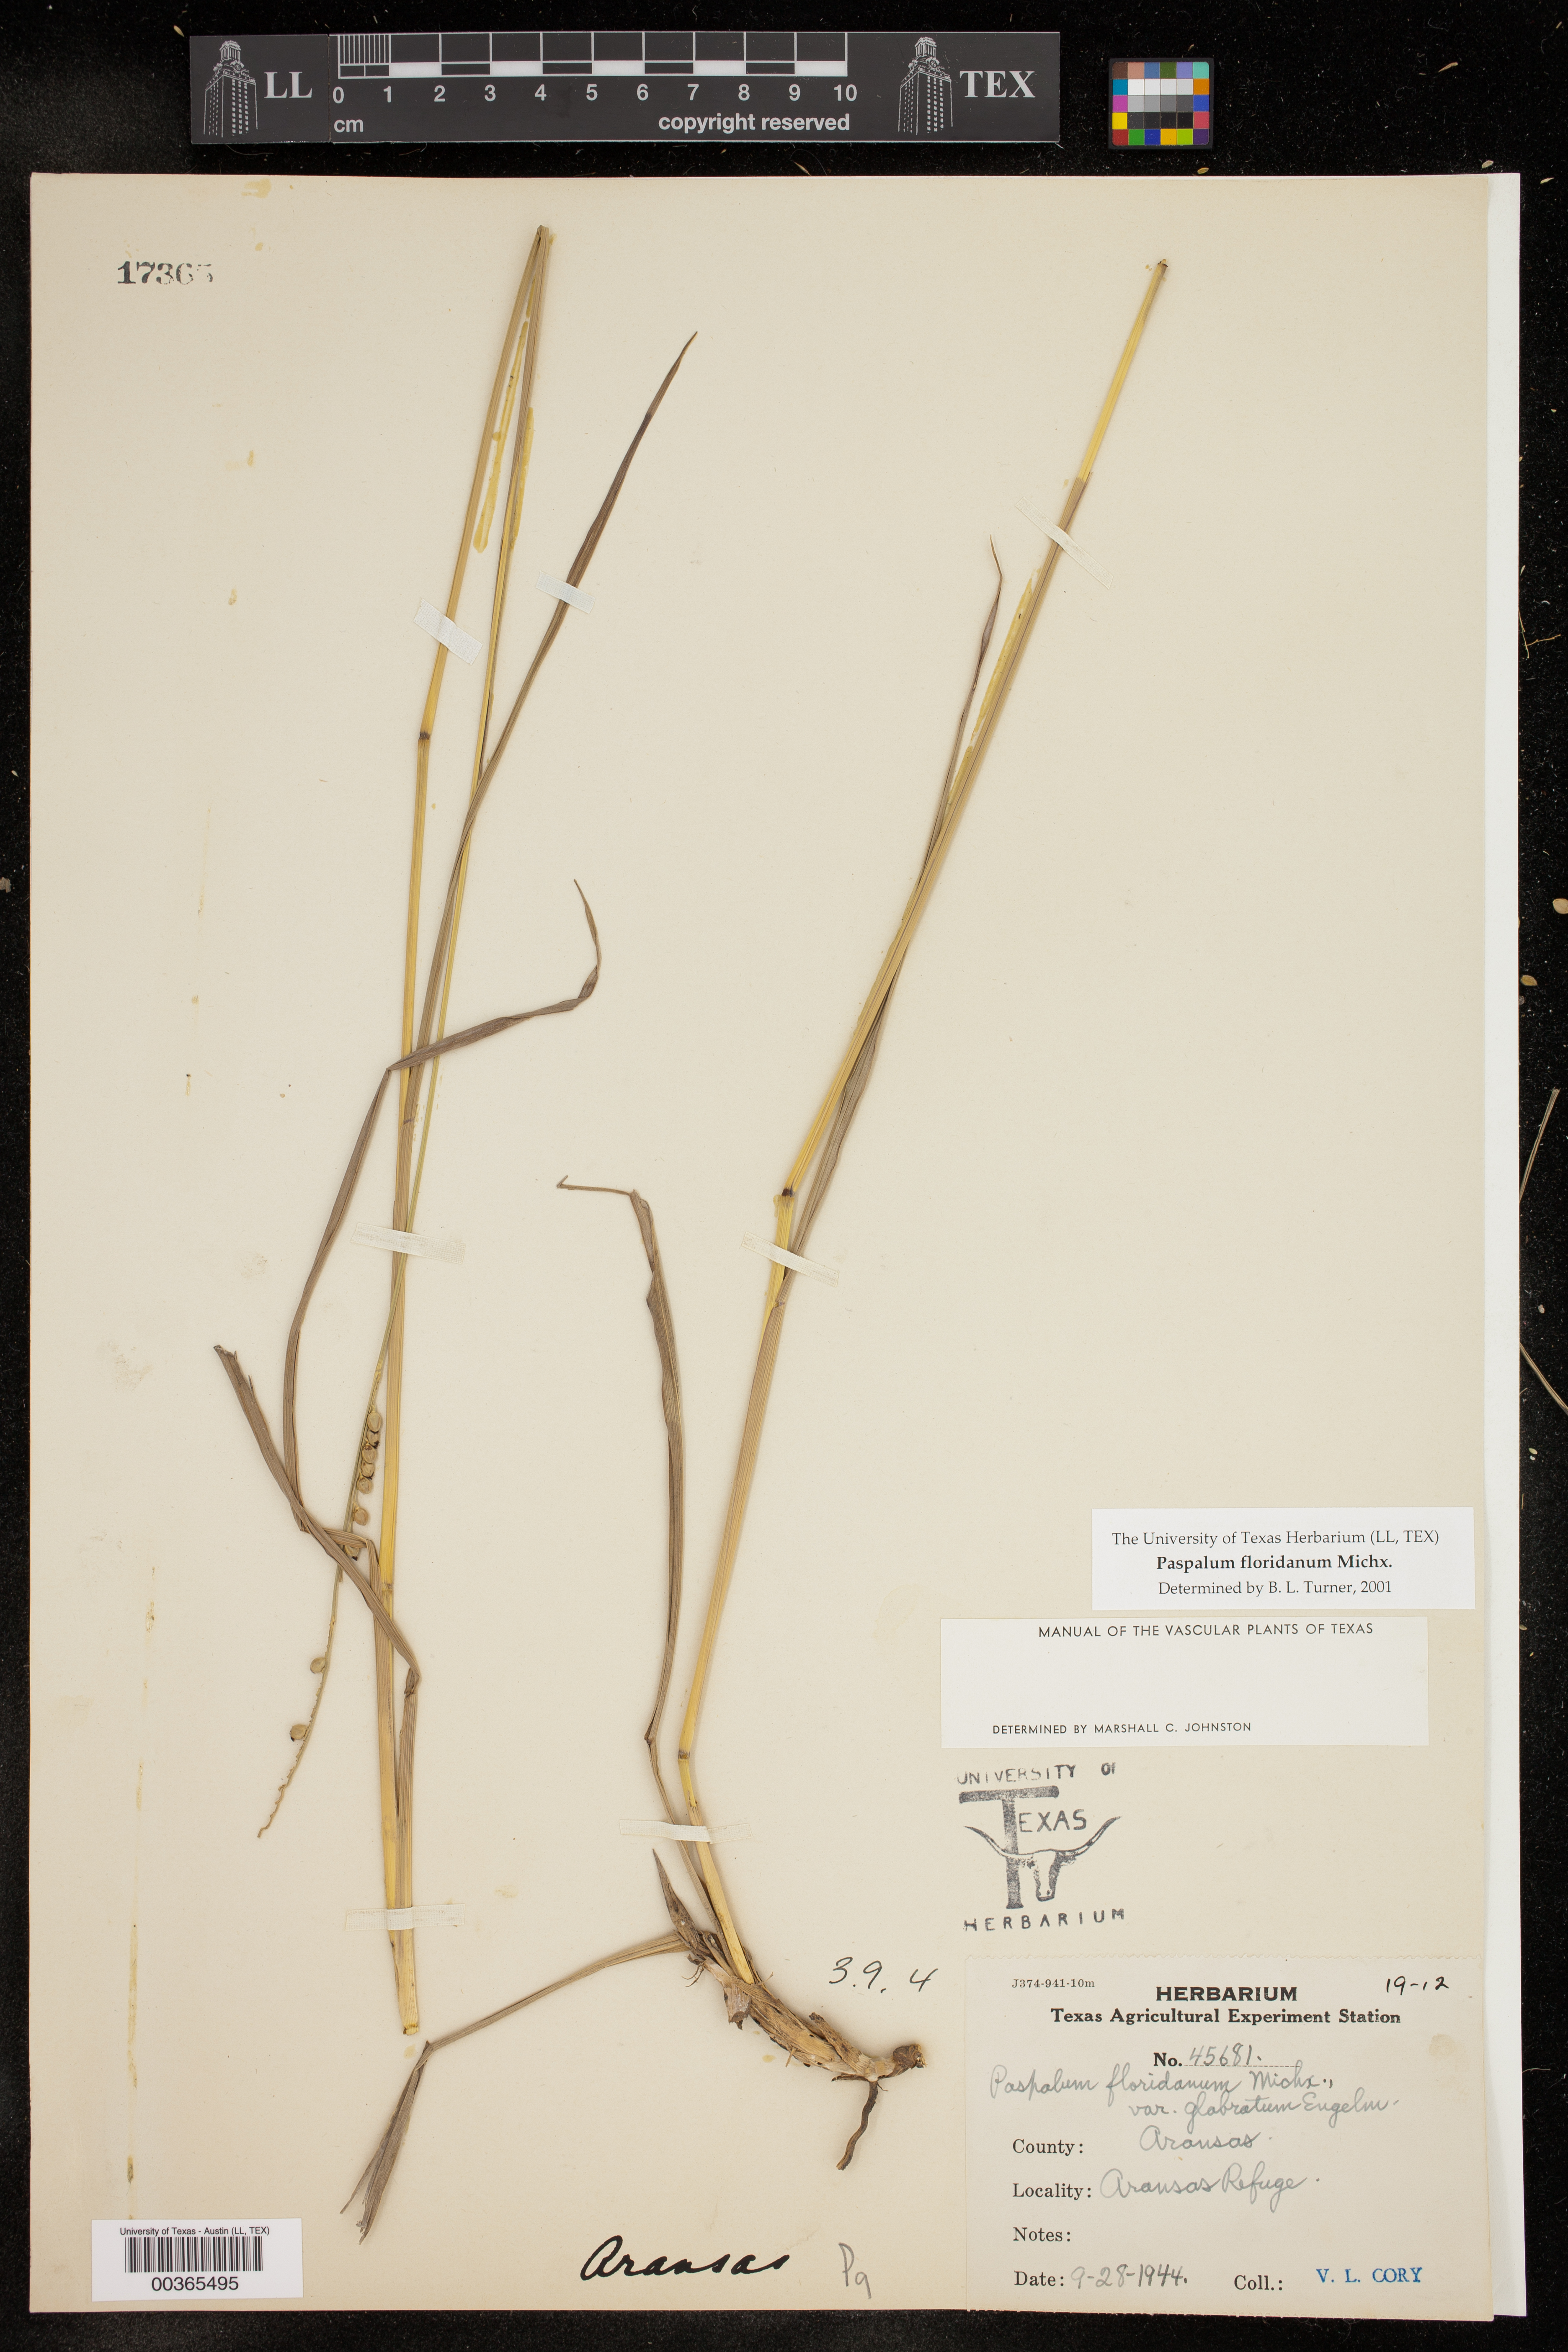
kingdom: Plantae
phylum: Tracheophyta
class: Liliopsida
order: Poales
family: Poaceae
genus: Paspalum
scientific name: Paspalum floridanum
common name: Florida paspalum
